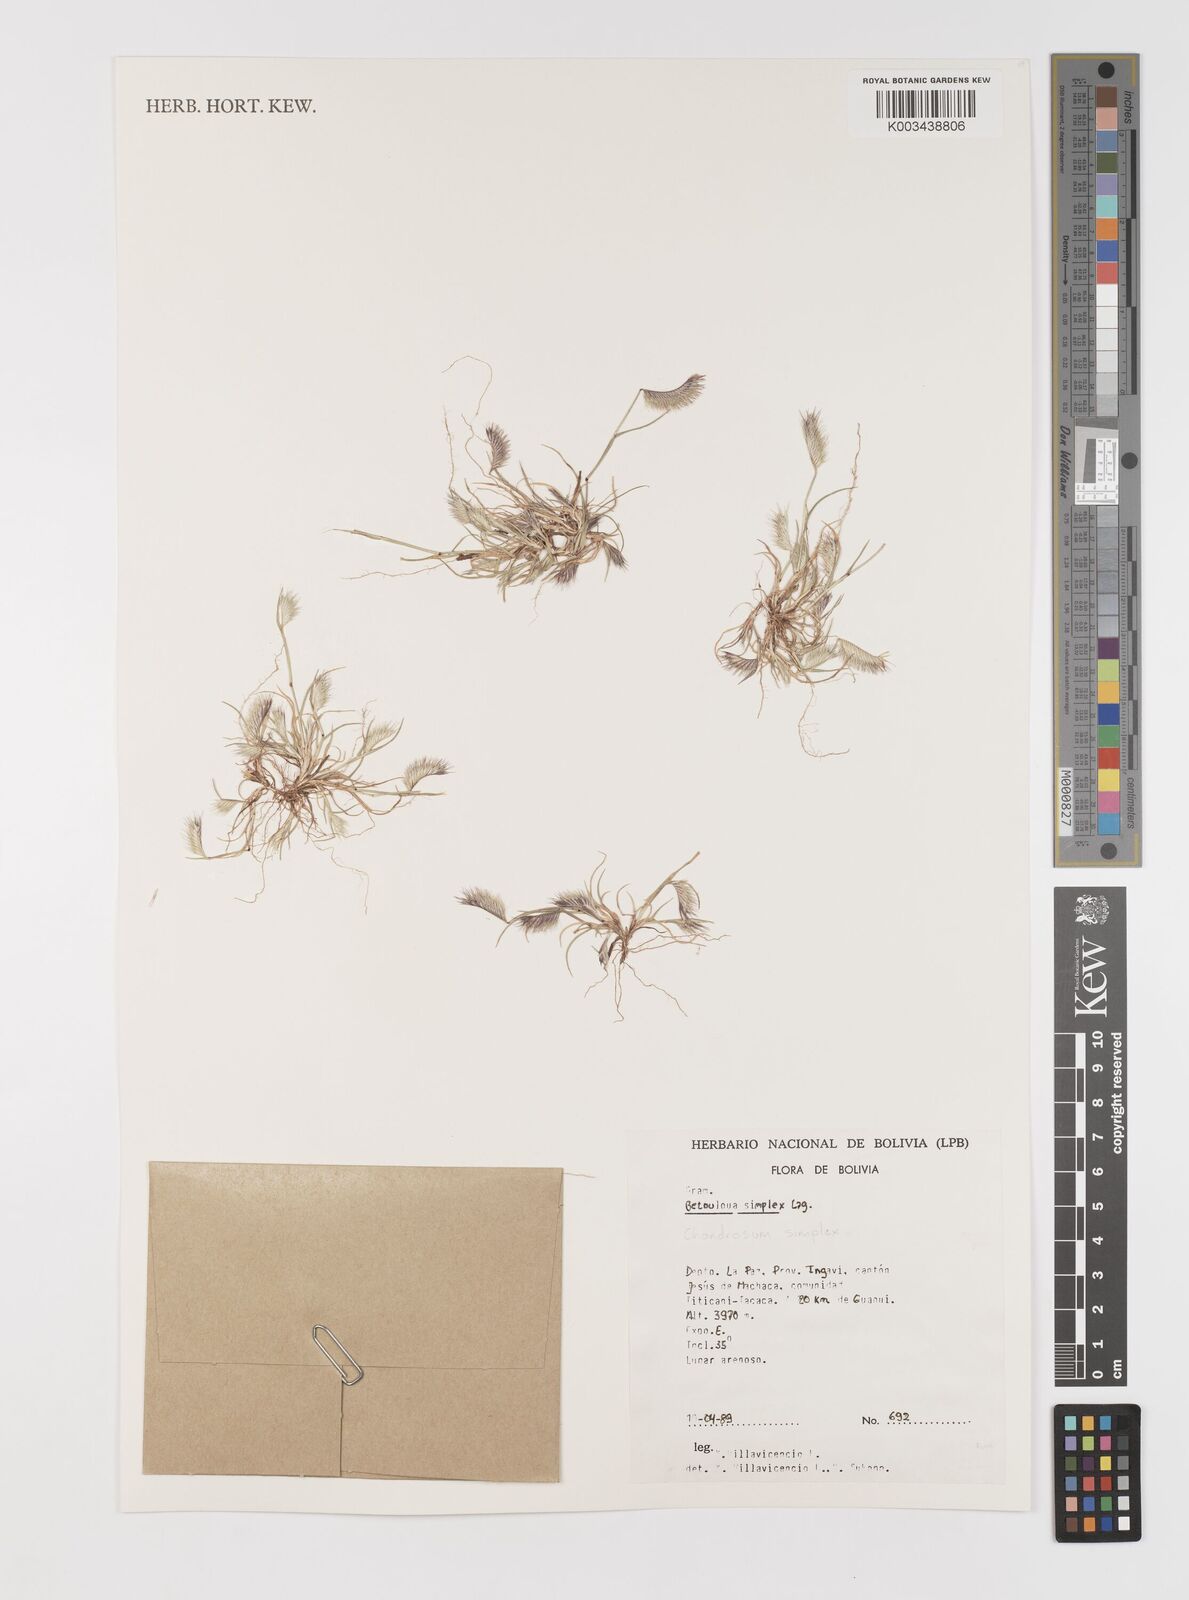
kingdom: Plantae
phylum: Tracheophyta
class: Liliopsida
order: Poales
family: Poaceae
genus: Bouteloua
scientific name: Bouteloua simplex
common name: Mat grama
